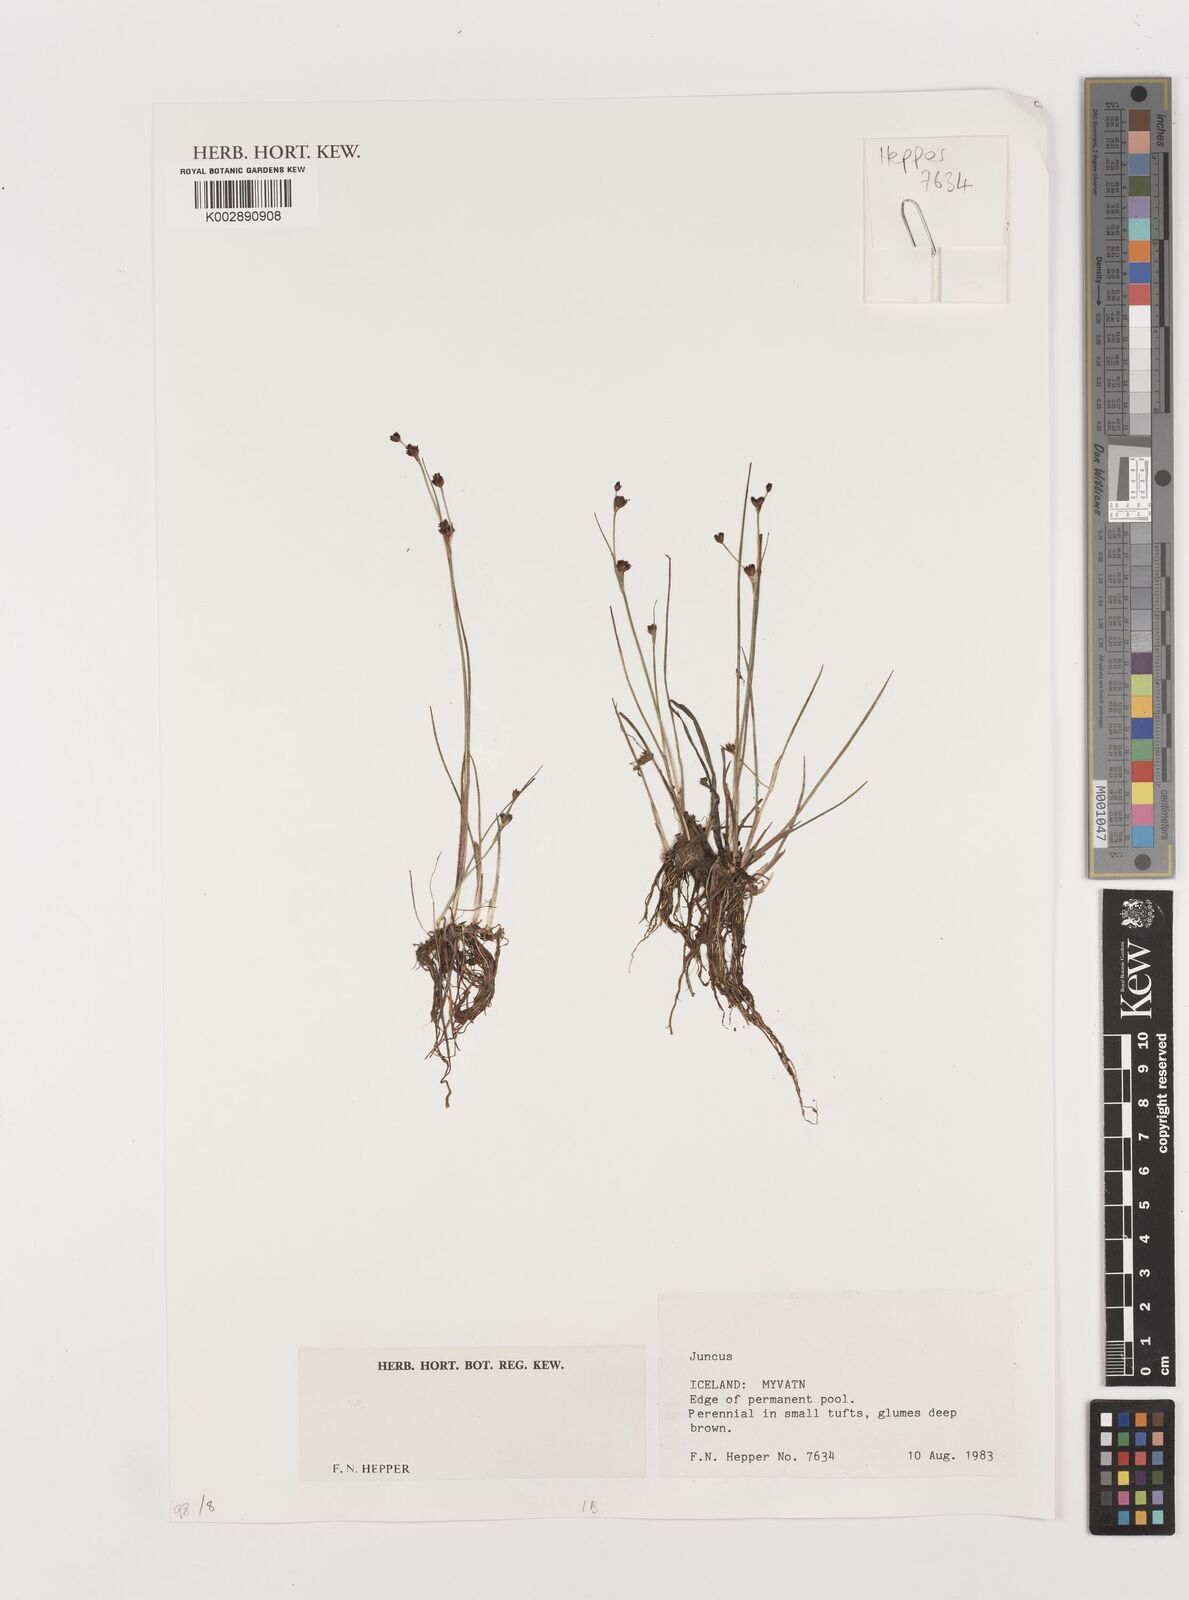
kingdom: Plantae
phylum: Tracheophyta
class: Liliopsida
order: Poales
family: Juncaceae
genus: Juncus
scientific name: Juncus
